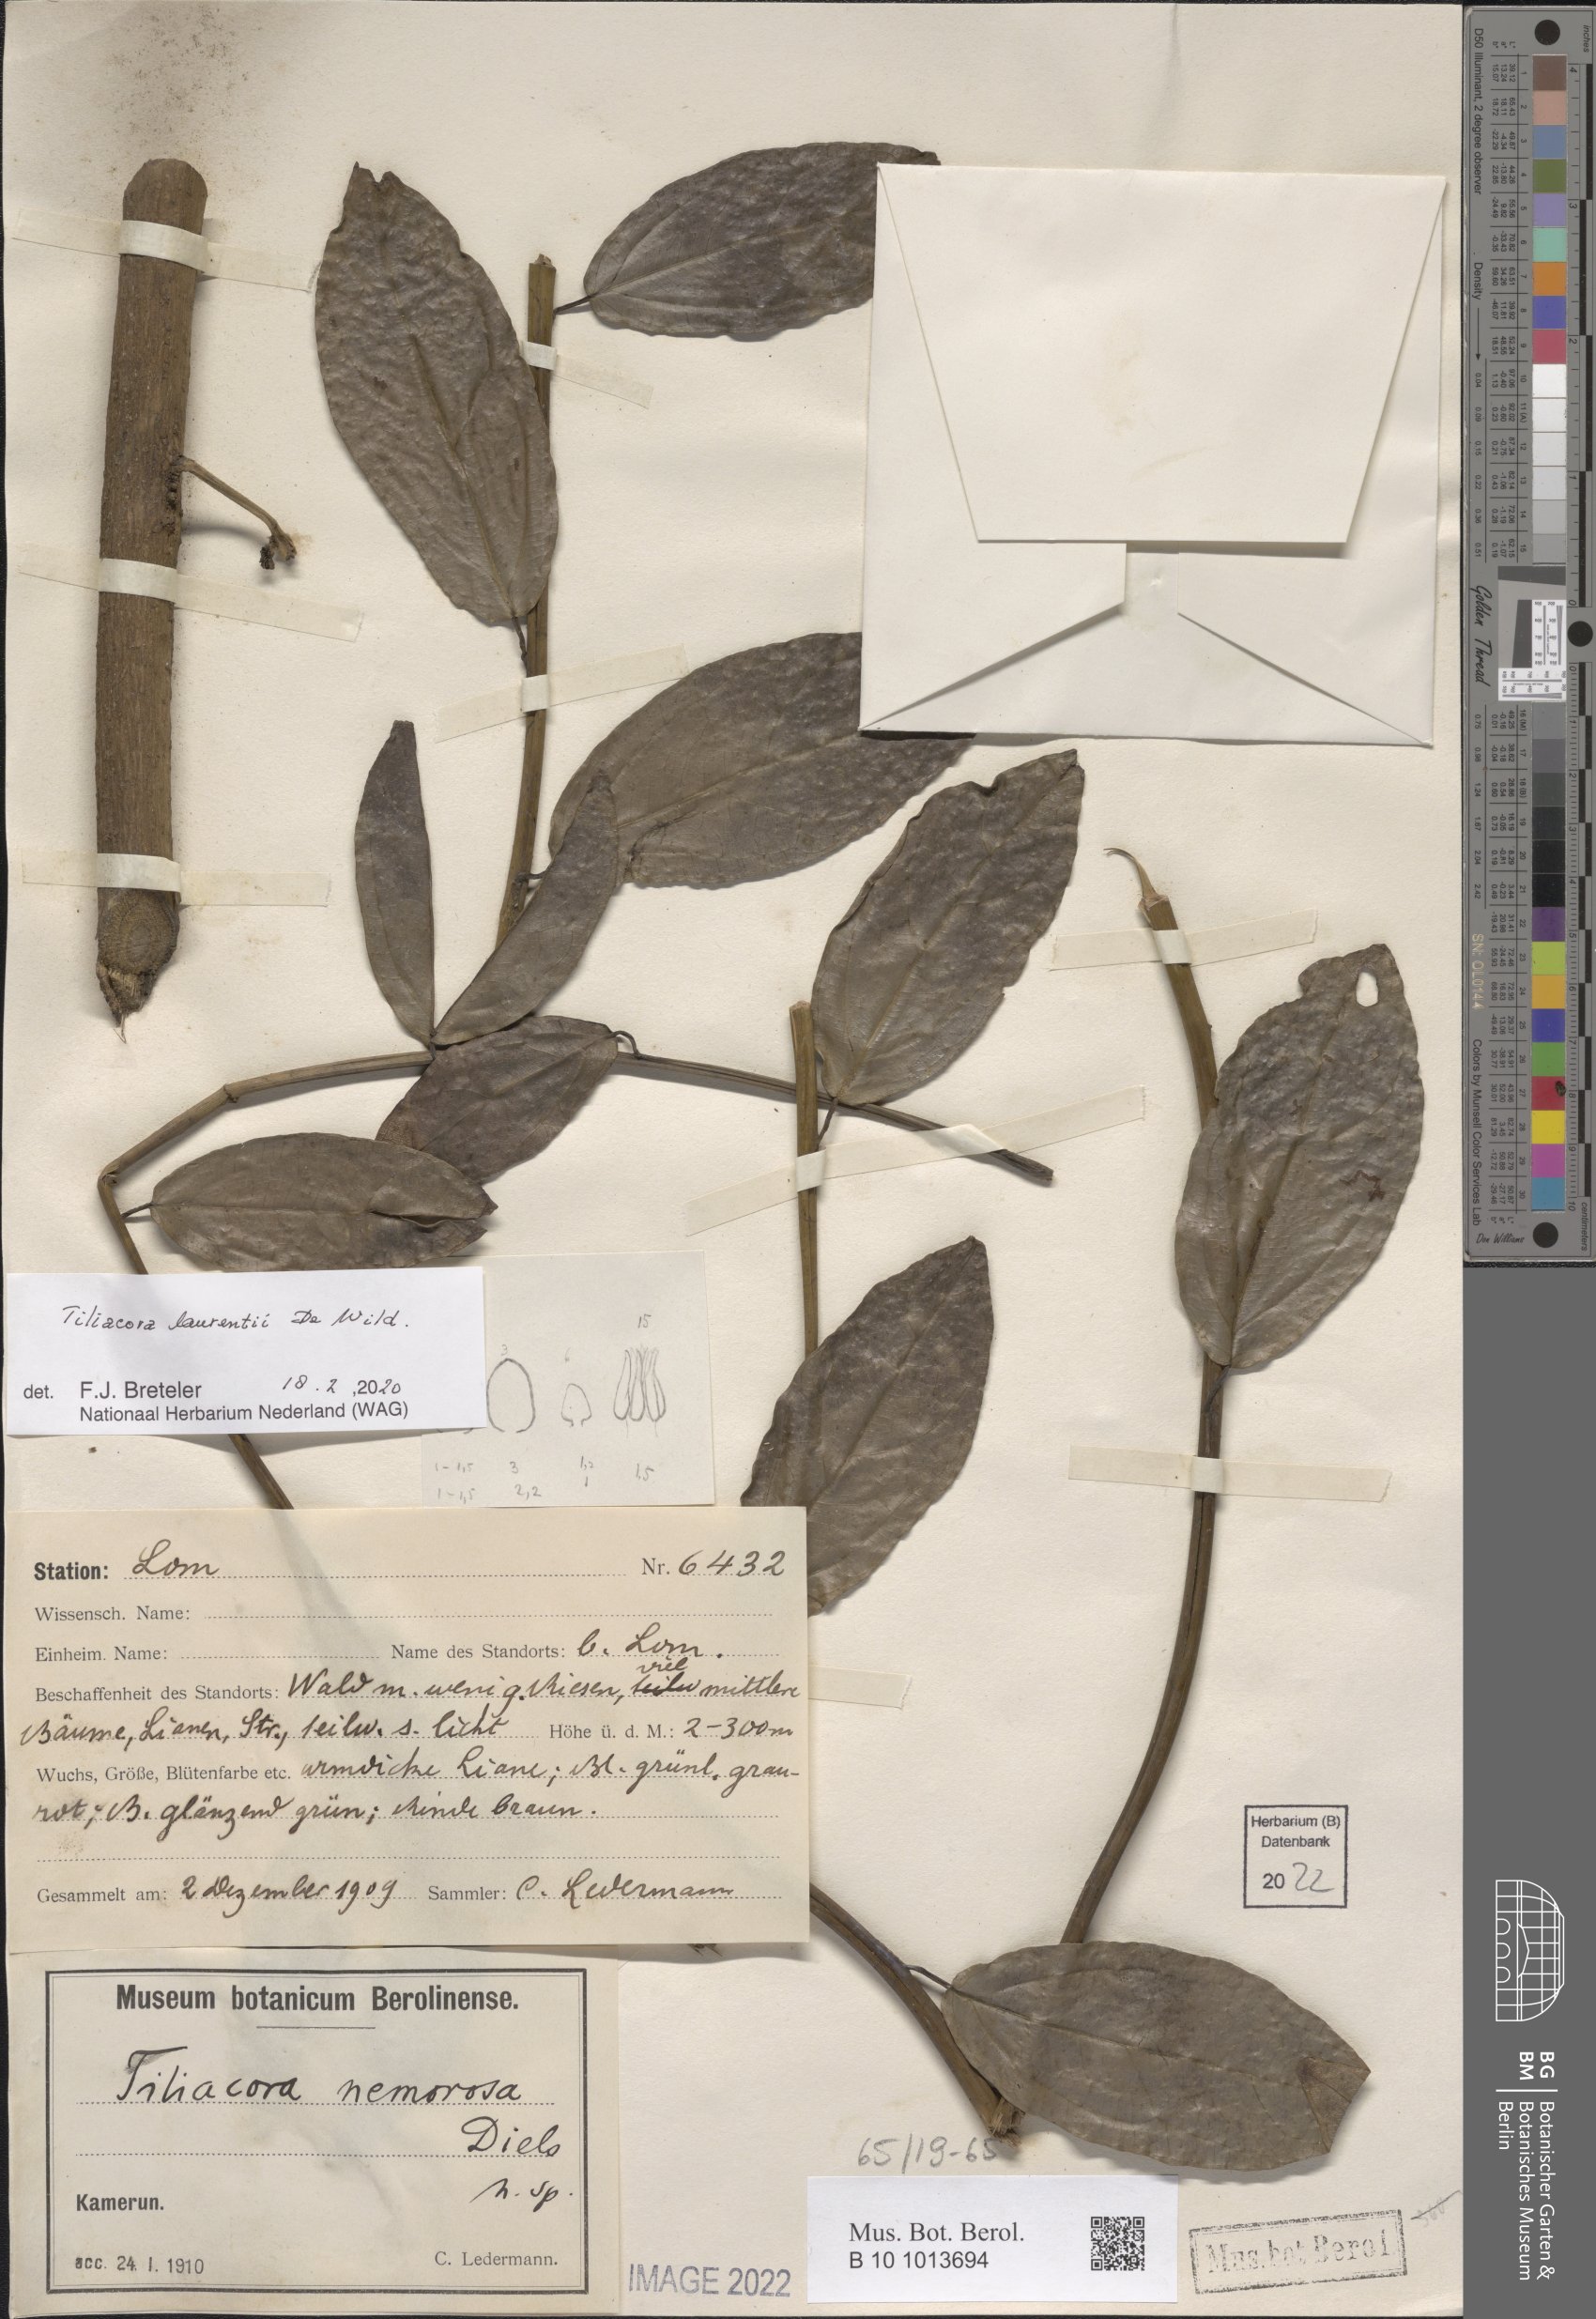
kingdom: Plantae
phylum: Tracheophyta
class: Magnoliopsida
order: Ranunculales
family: Menispermaceae
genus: Tiliacora
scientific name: Tiliacora laurentii
